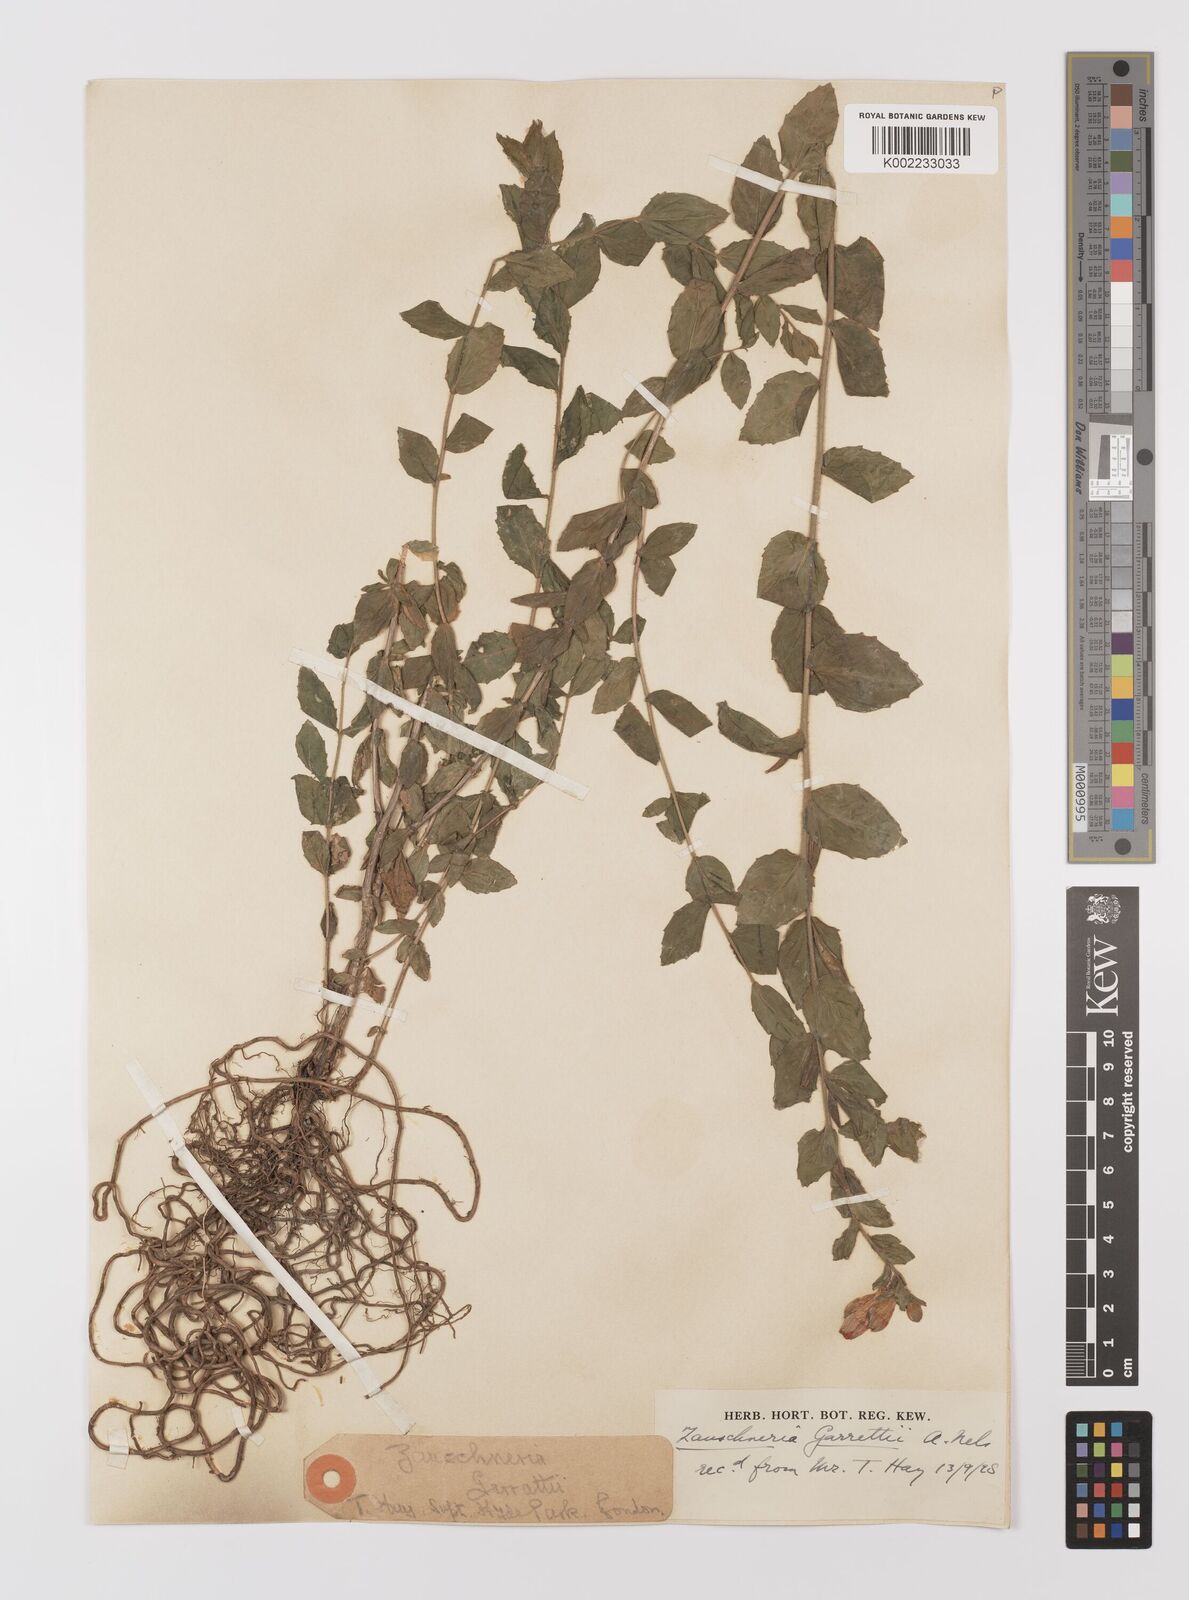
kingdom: Plantae
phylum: Tracheophyta
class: Magnoliopsida
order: Myrtales
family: Onagraceae
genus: Epilobium
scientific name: Epilobium
